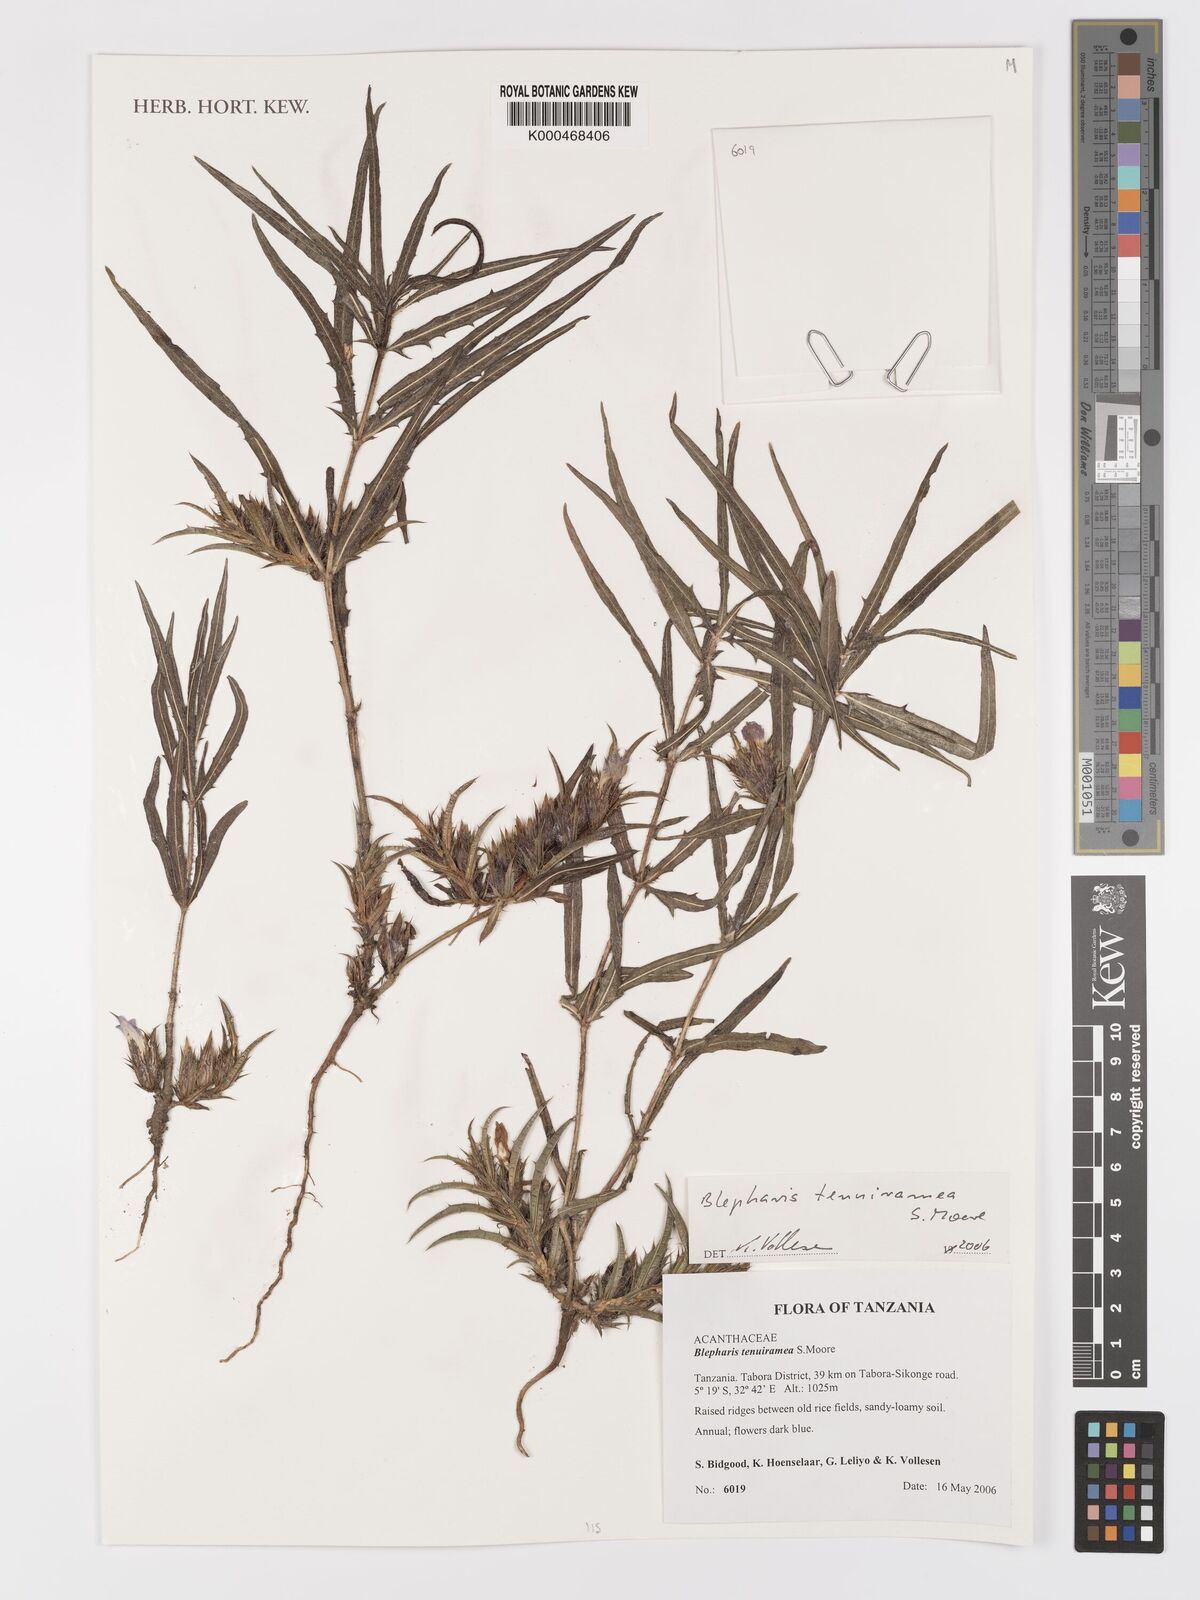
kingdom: Plantae
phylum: Tracheophyta
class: Magnoliopsida
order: Lamiales
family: Acanthaceae
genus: Blepharis
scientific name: Blepharis tenuiramea
